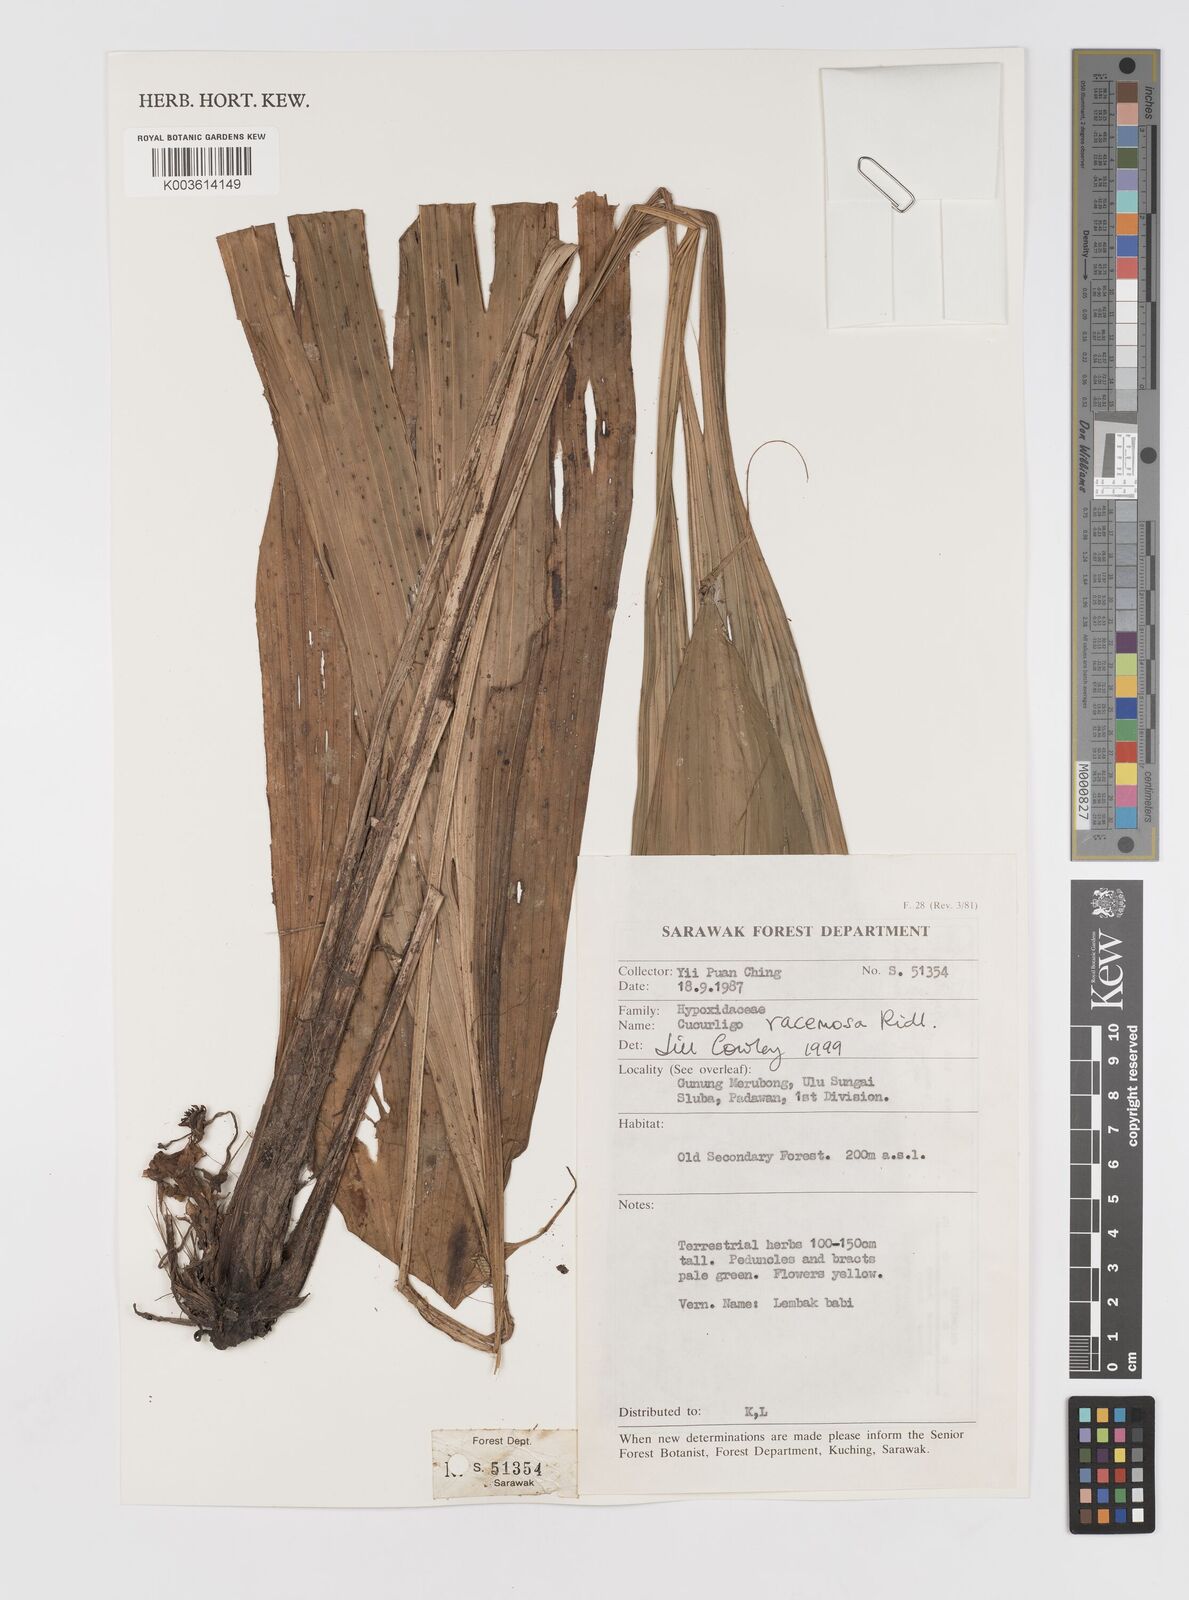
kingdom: Plantae
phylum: Tracheophyta
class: Liliopsida
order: Asparagales
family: Hypoxidaceae
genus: Curculigo
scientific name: Curculigo racemosa
